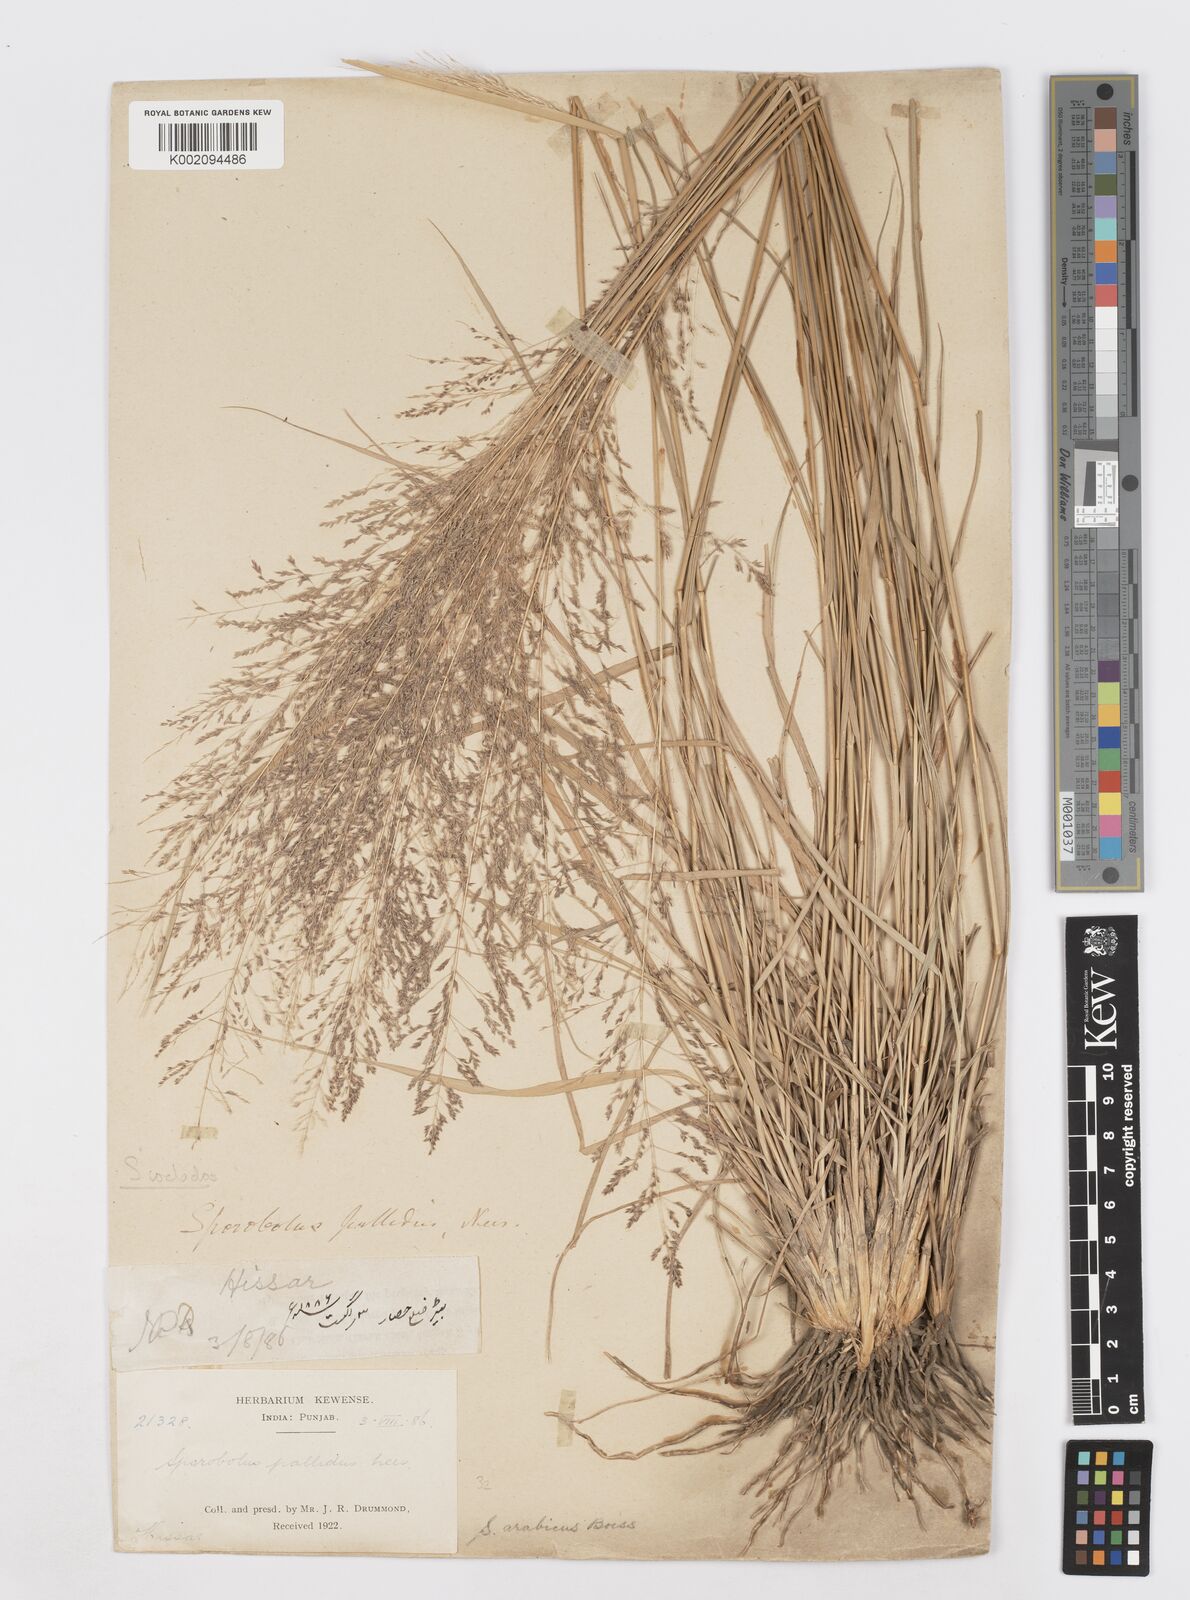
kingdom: Plantae
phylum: Tracheophyta
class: Liliopsida
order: Poales
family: Poaceae
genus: Sporobolus
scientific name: Sporobolus ioclados
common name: Pan dropseed
